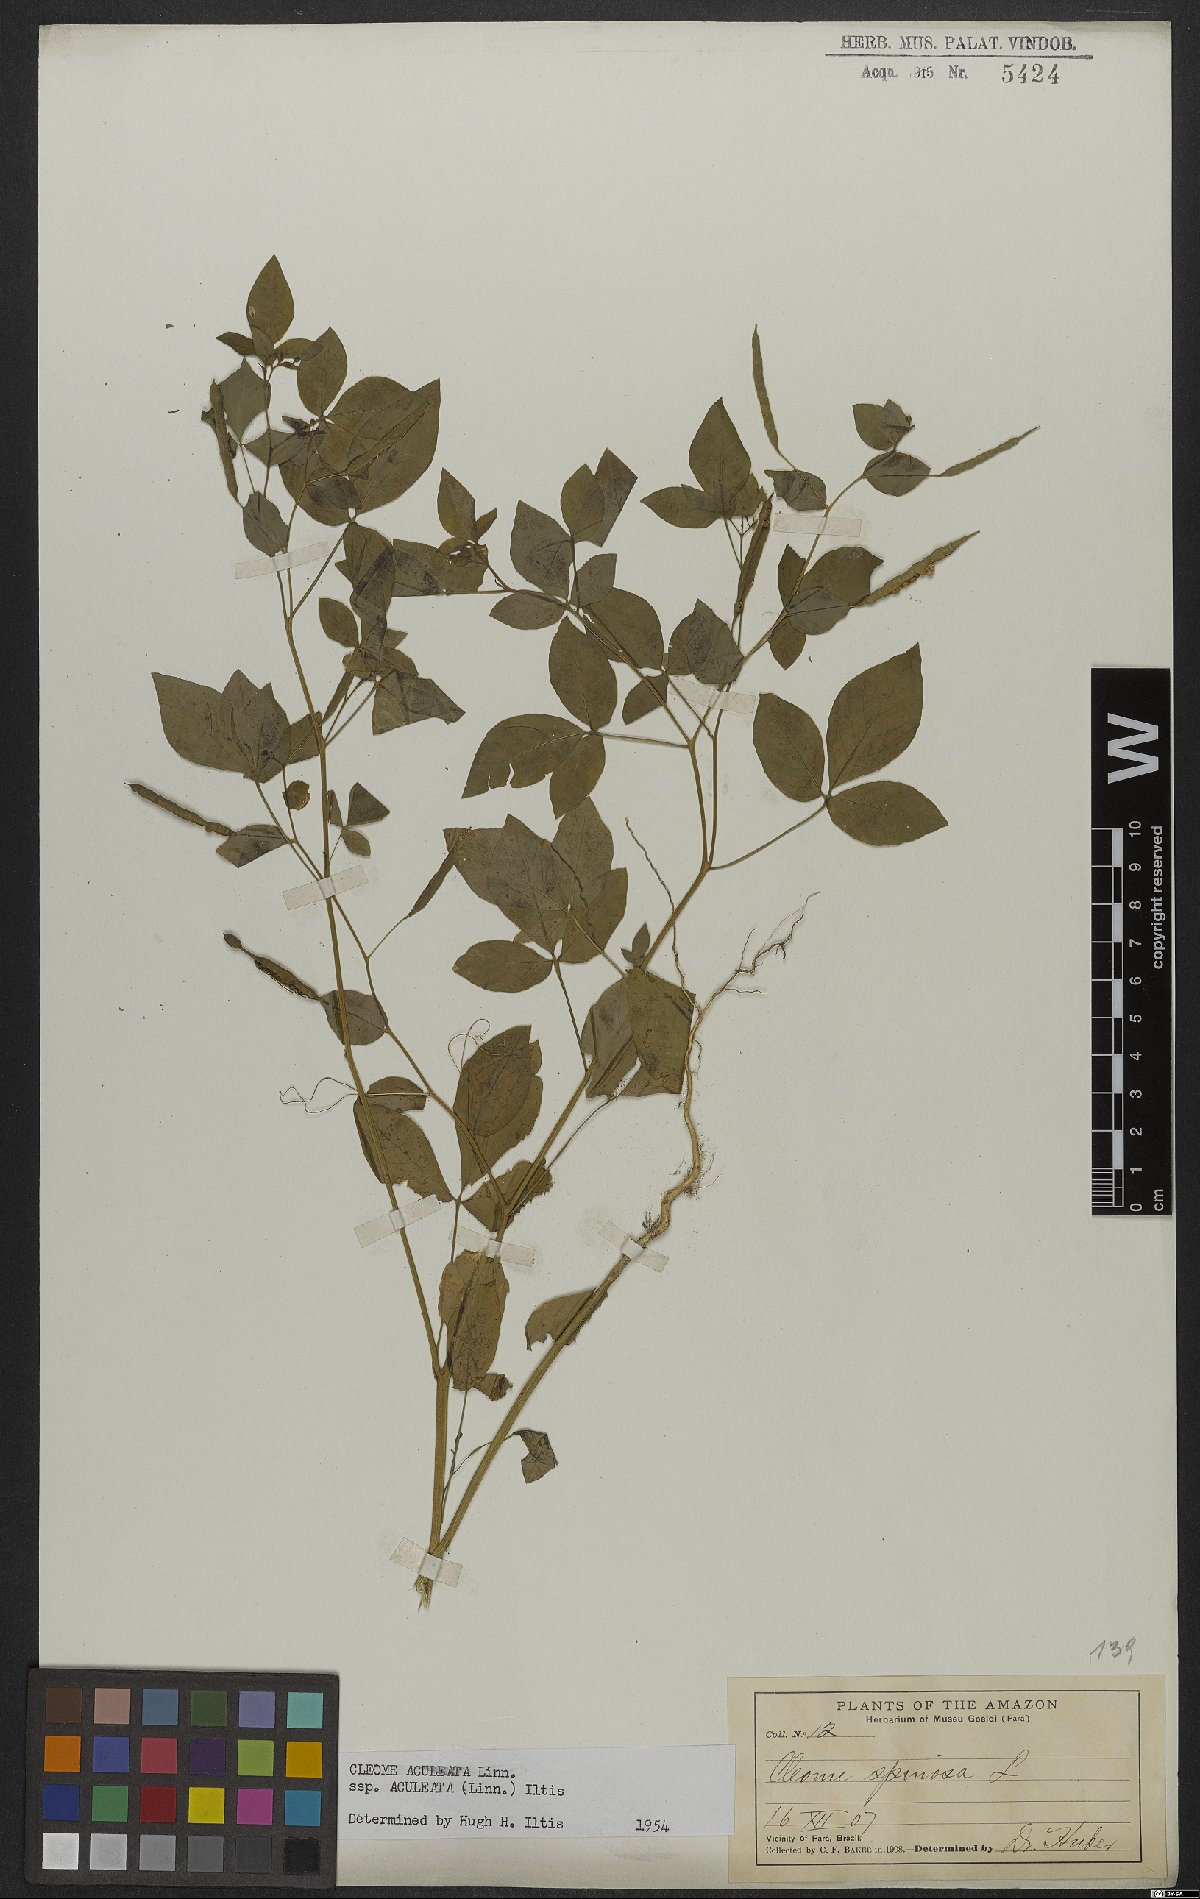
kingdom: Plantae
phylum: Tracheophyta
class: Magnoliopsida
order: Brassicales
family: Cleomaceae
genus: Tarenaya
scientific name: Tarenaya aculeata
